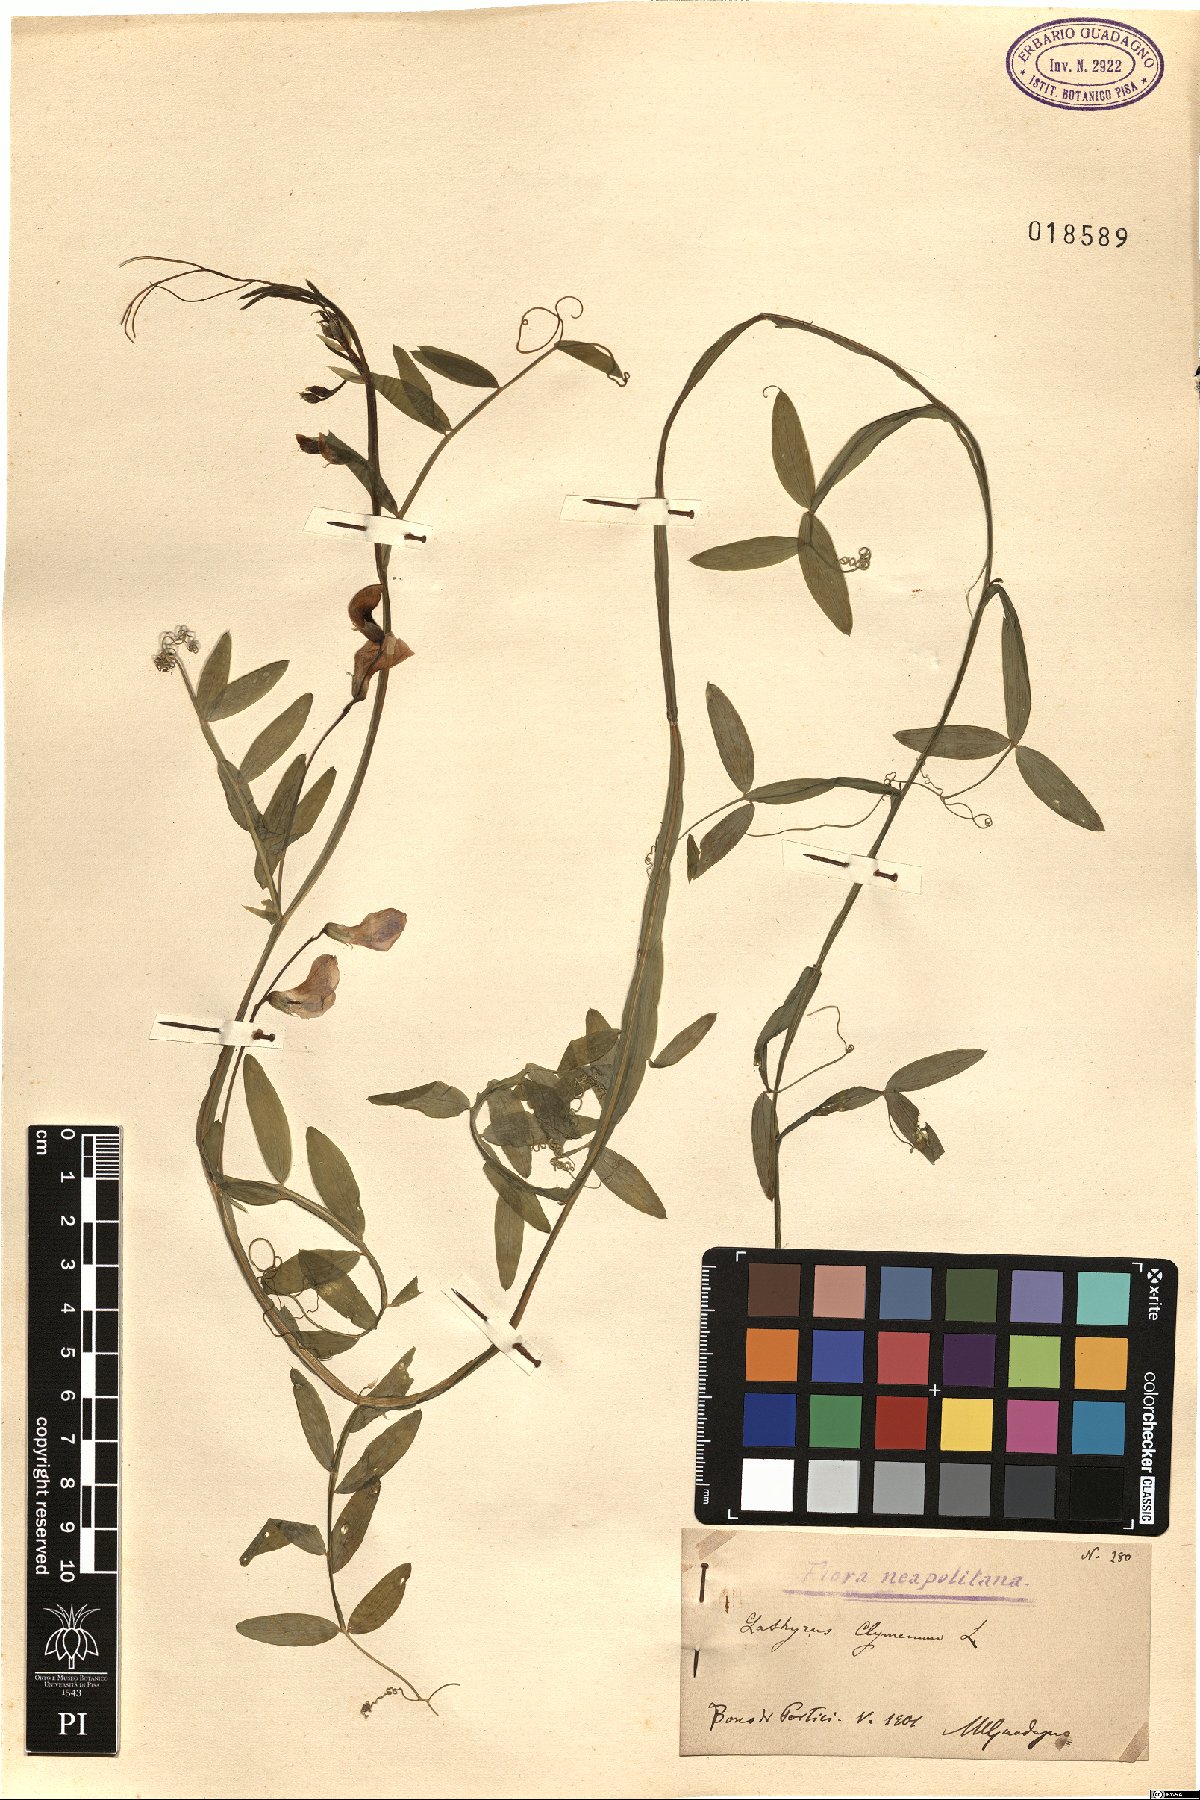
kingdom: Plantae
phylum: Tracheophyta
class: Magnoliopsida
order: Fabales
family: Fabaceae
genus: Lathyrus
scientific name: Lathyrus clymenum
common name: Spanish vetchling
